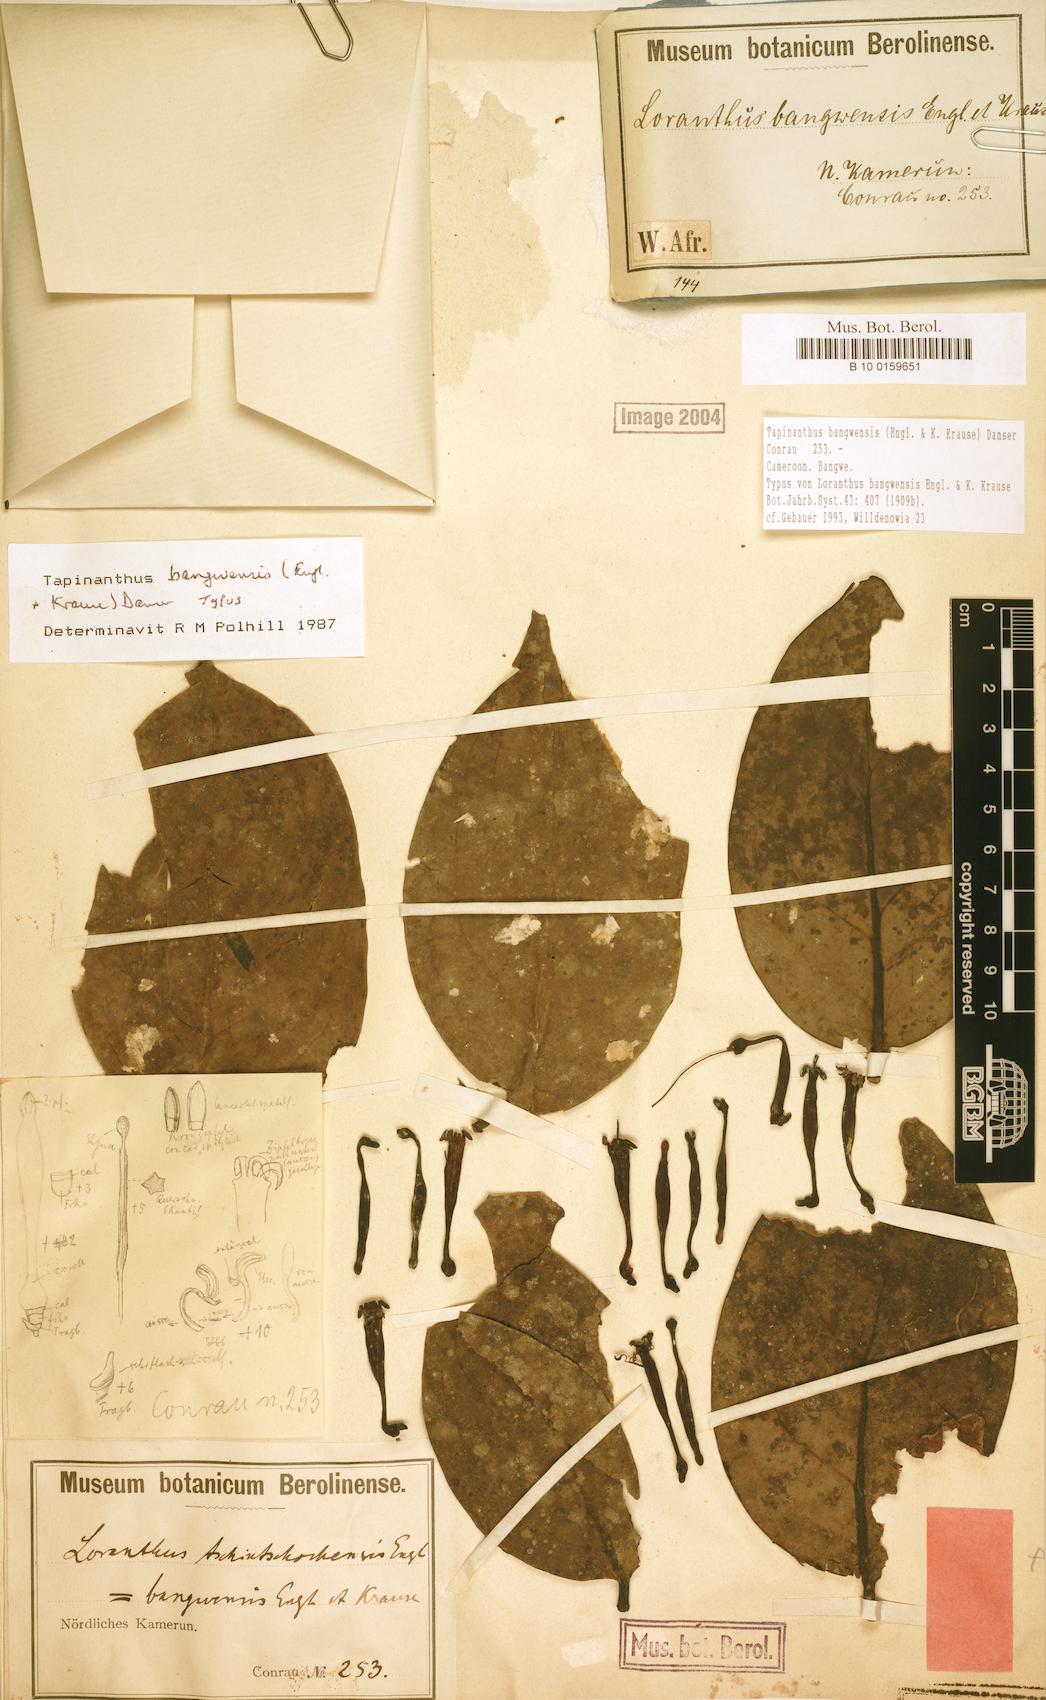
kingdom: Plantae
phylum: Tracheophyta
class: Magnoliopsida
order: Santalales
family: Loranthaceae
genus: Tapinanthus
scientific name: Tapinanthus bangwensis
